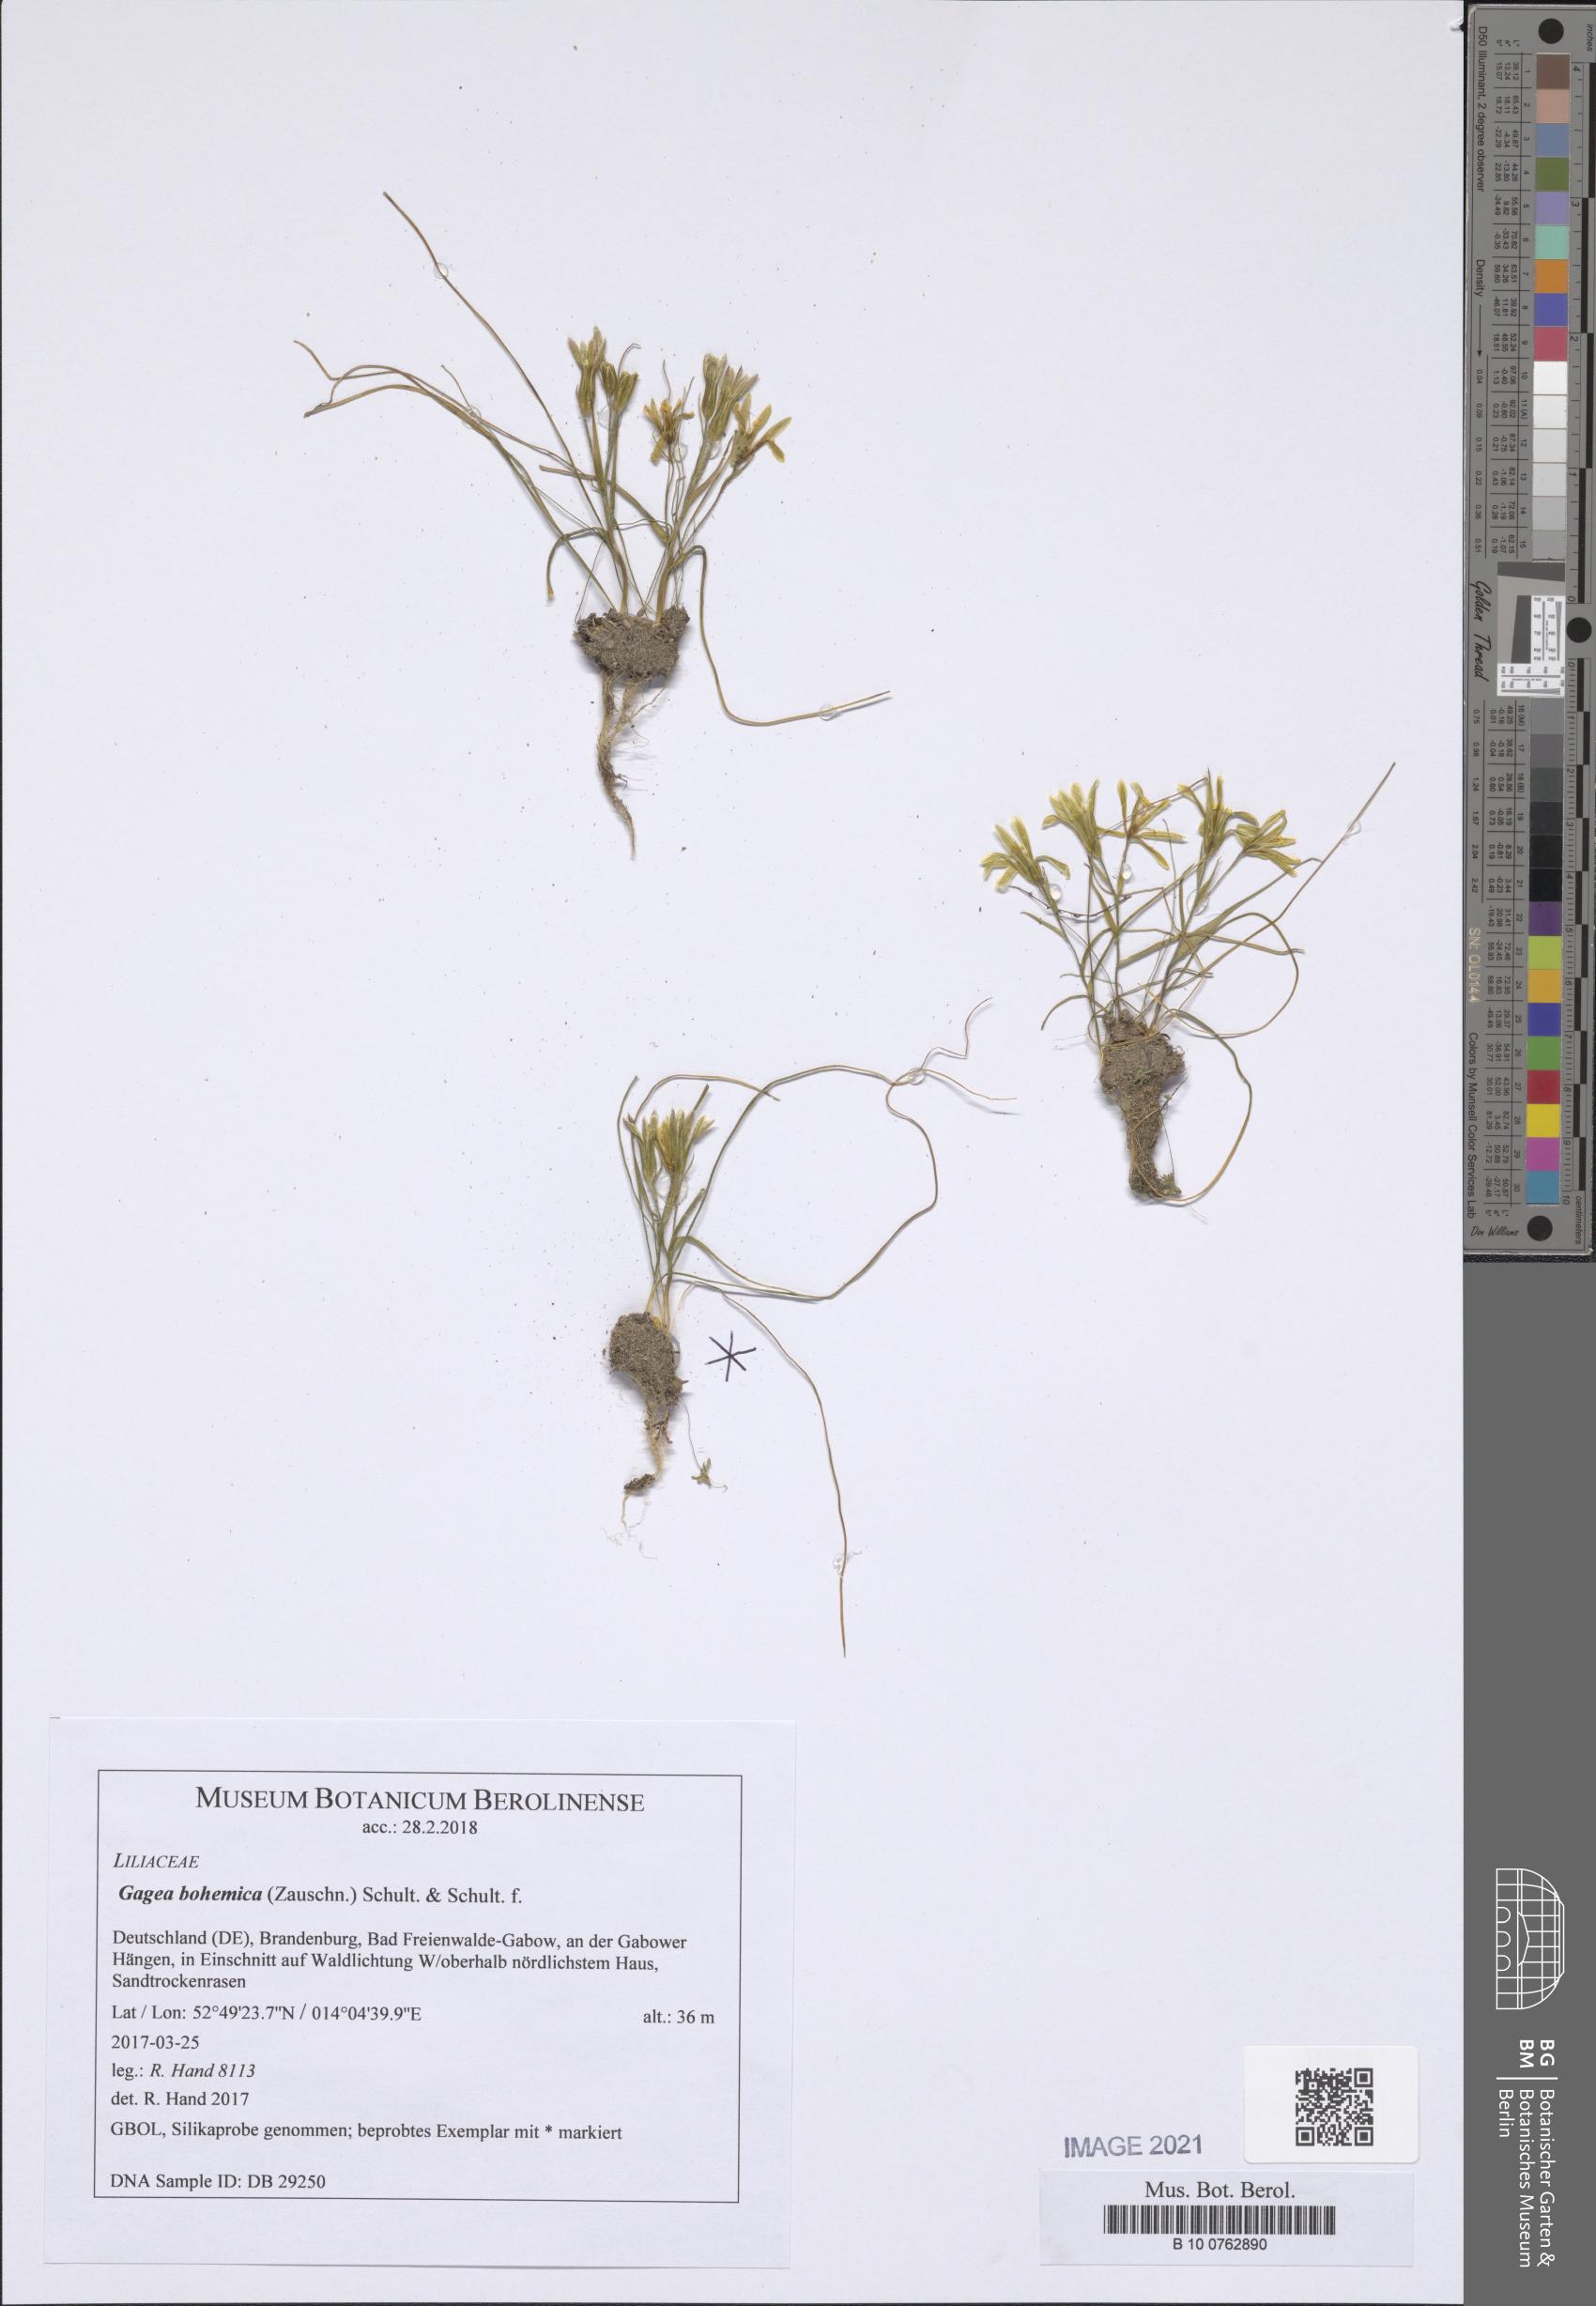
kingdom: Plantae
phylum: Tracheophyta
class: Liliopsida
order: Liliales
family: Liliaceae
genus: Gagea
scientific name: Gagea bohemica
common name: Early star-of-bethlehem
